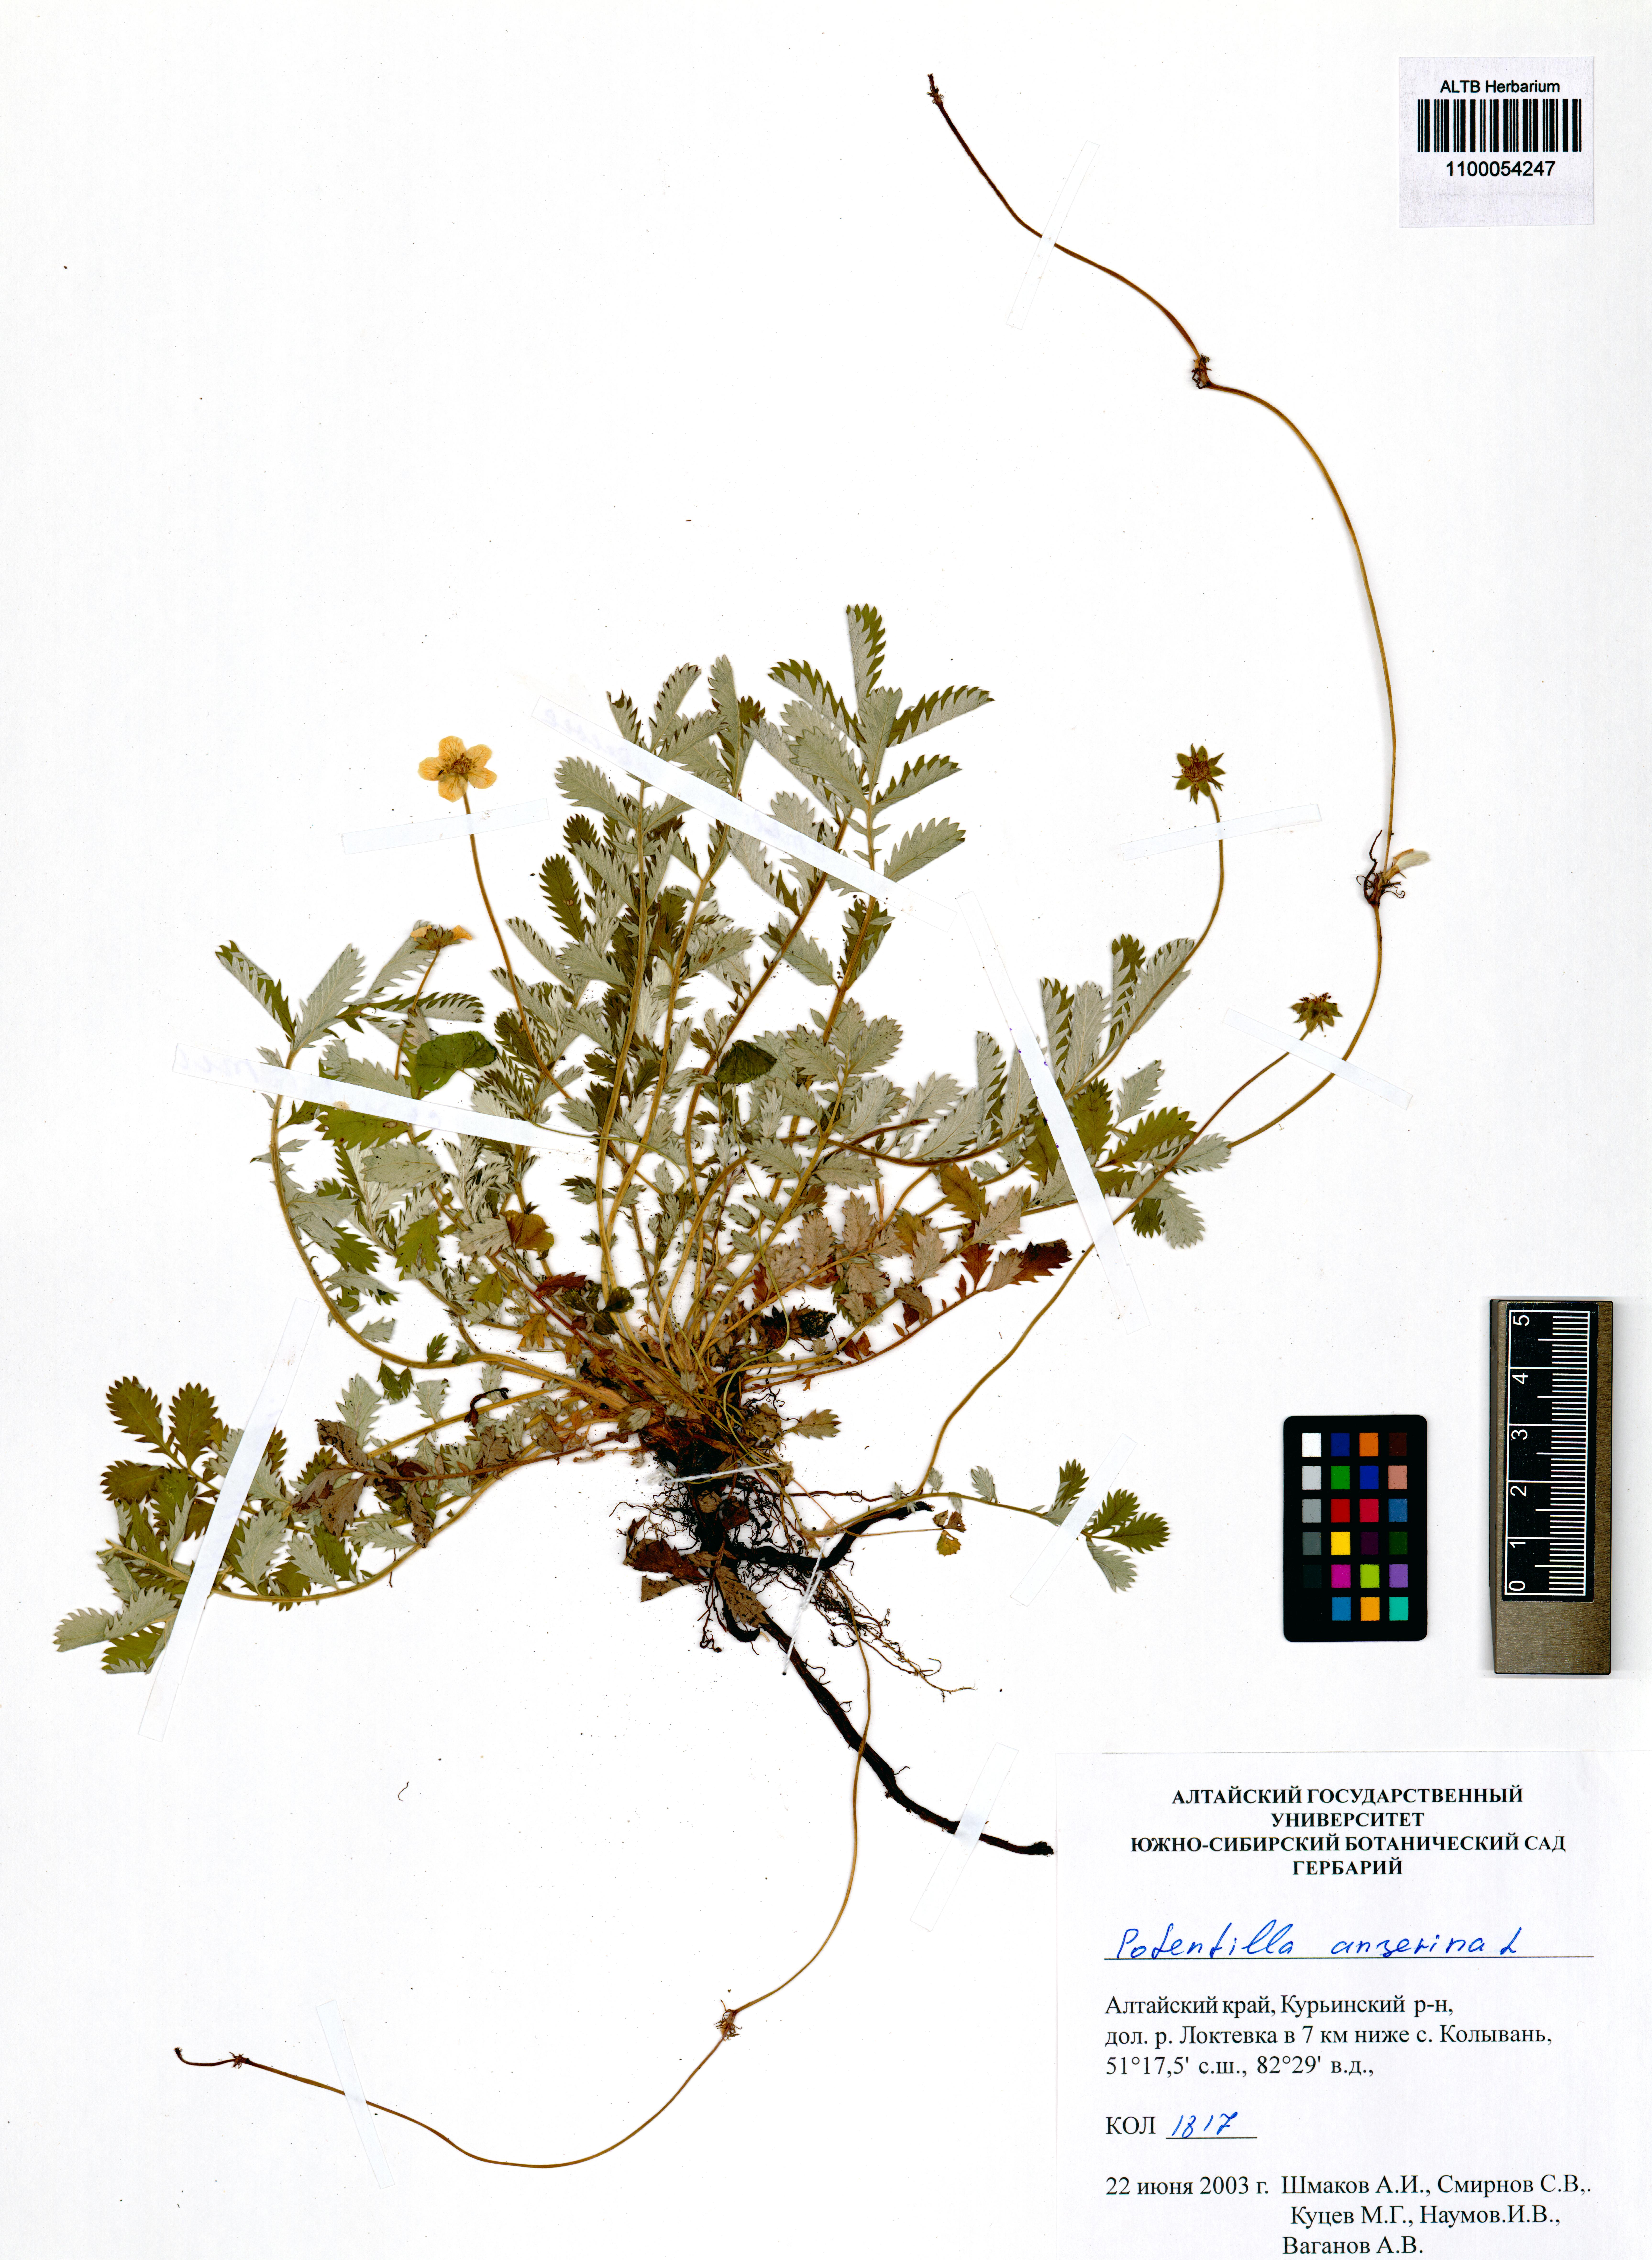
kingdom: Plantae
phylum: Tracheophyta
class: Magnoliopsida
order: Rosales
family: Rosaceae
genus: Argentina
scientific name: Argentina anserina
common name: Common silverweed
